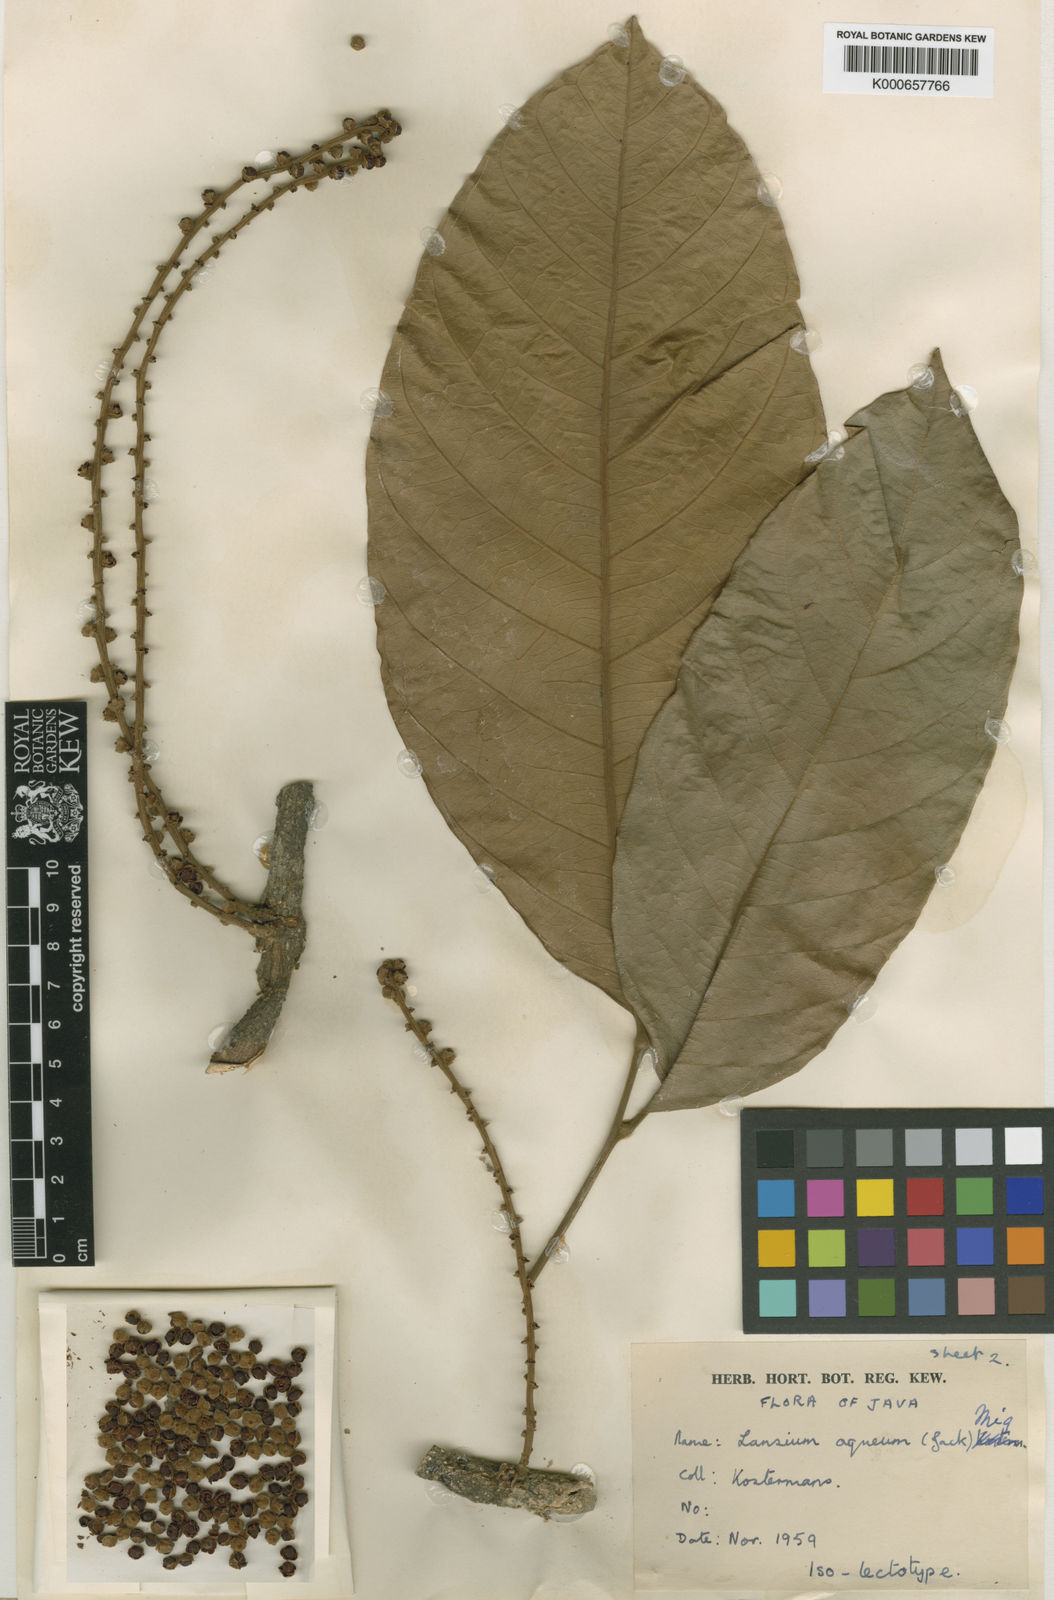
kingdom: Plantae
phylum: Tracheophyta
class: Magnoliopsida
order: Sapindales
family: Meliaceae
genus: Lansium
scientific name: Lansium
